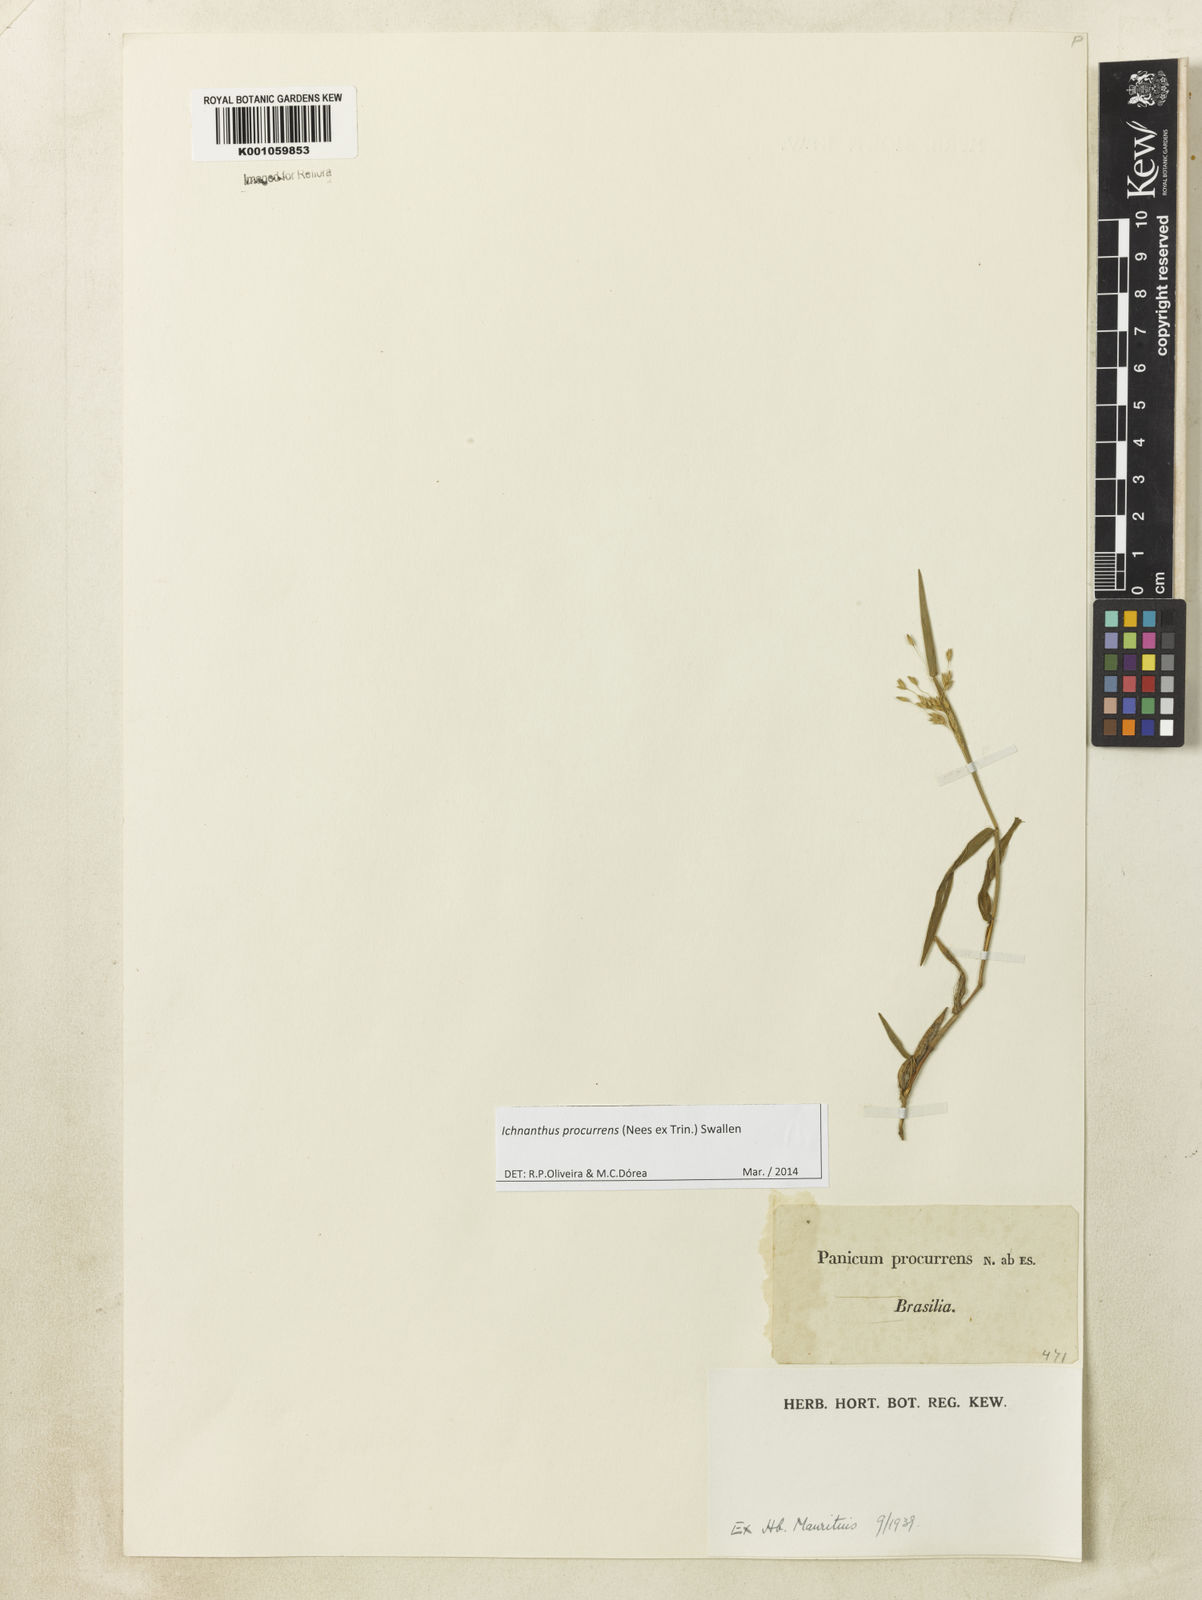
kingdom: Plantae
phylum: Tracheophyta
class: Liliopsida
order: Poales
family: Poaceae
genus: Oedochloa
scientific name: Oedochloa procurrens
